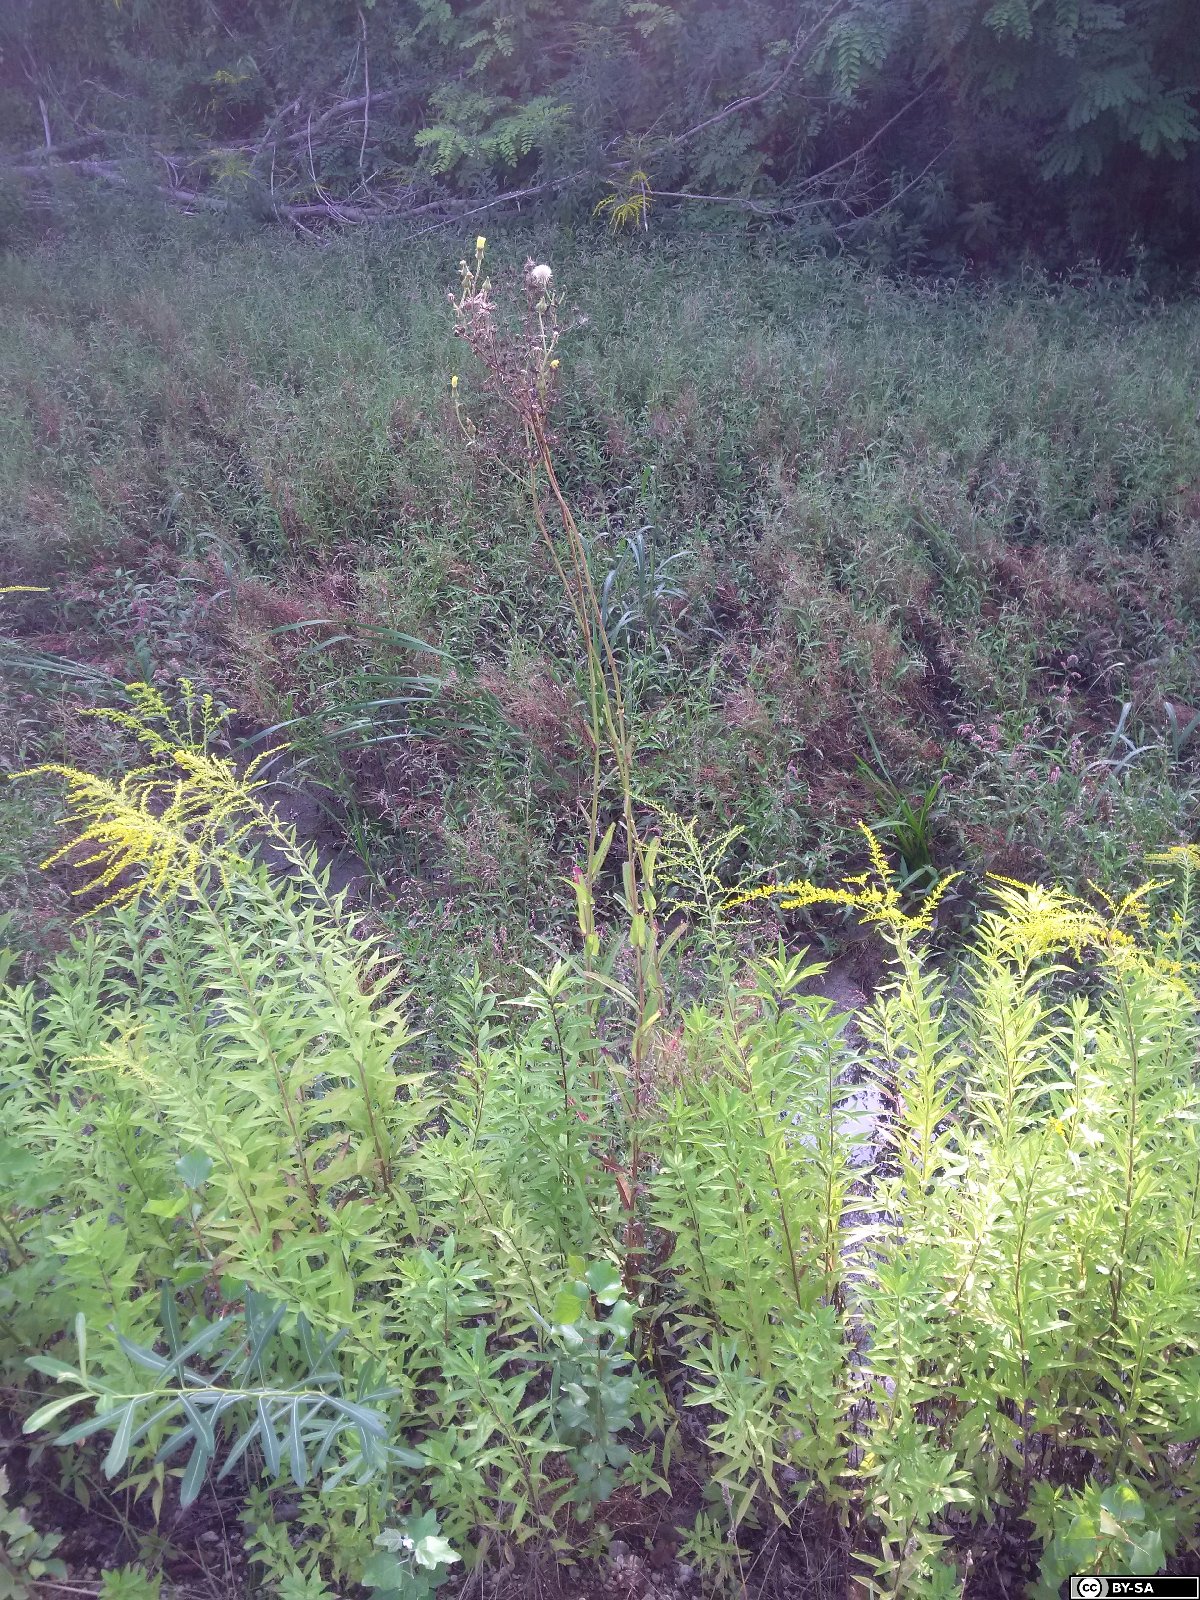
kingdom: Plantae
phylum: Tracheophyta
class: Magnoliopsida
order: Asterales
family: Asteraceae
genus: Sonchus
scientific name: Sonchus palustris
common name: Marsh sow-thistle
